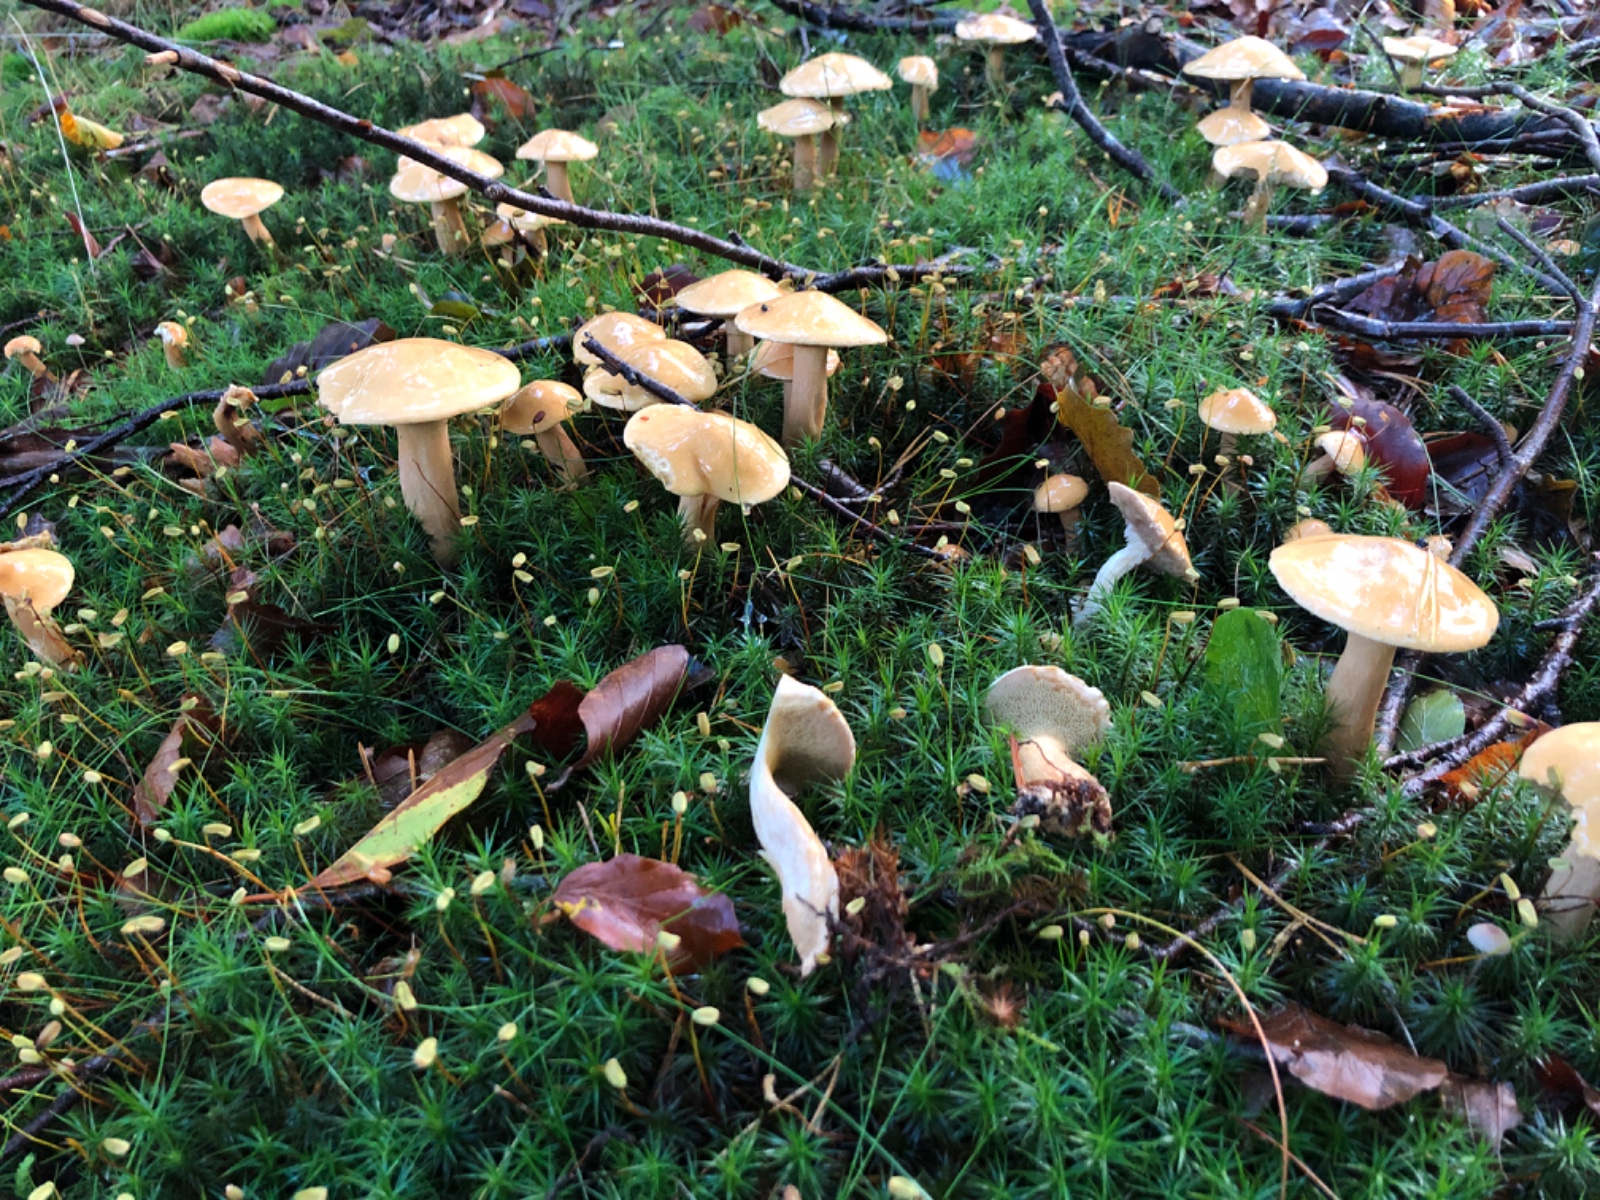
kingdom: Fungi
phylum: Basidiomycota
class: Agaricomycetes
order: Boletales
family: Suillaceae
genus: Suillus
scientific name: Suillus bovinus
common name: grovporet slimrørhat
